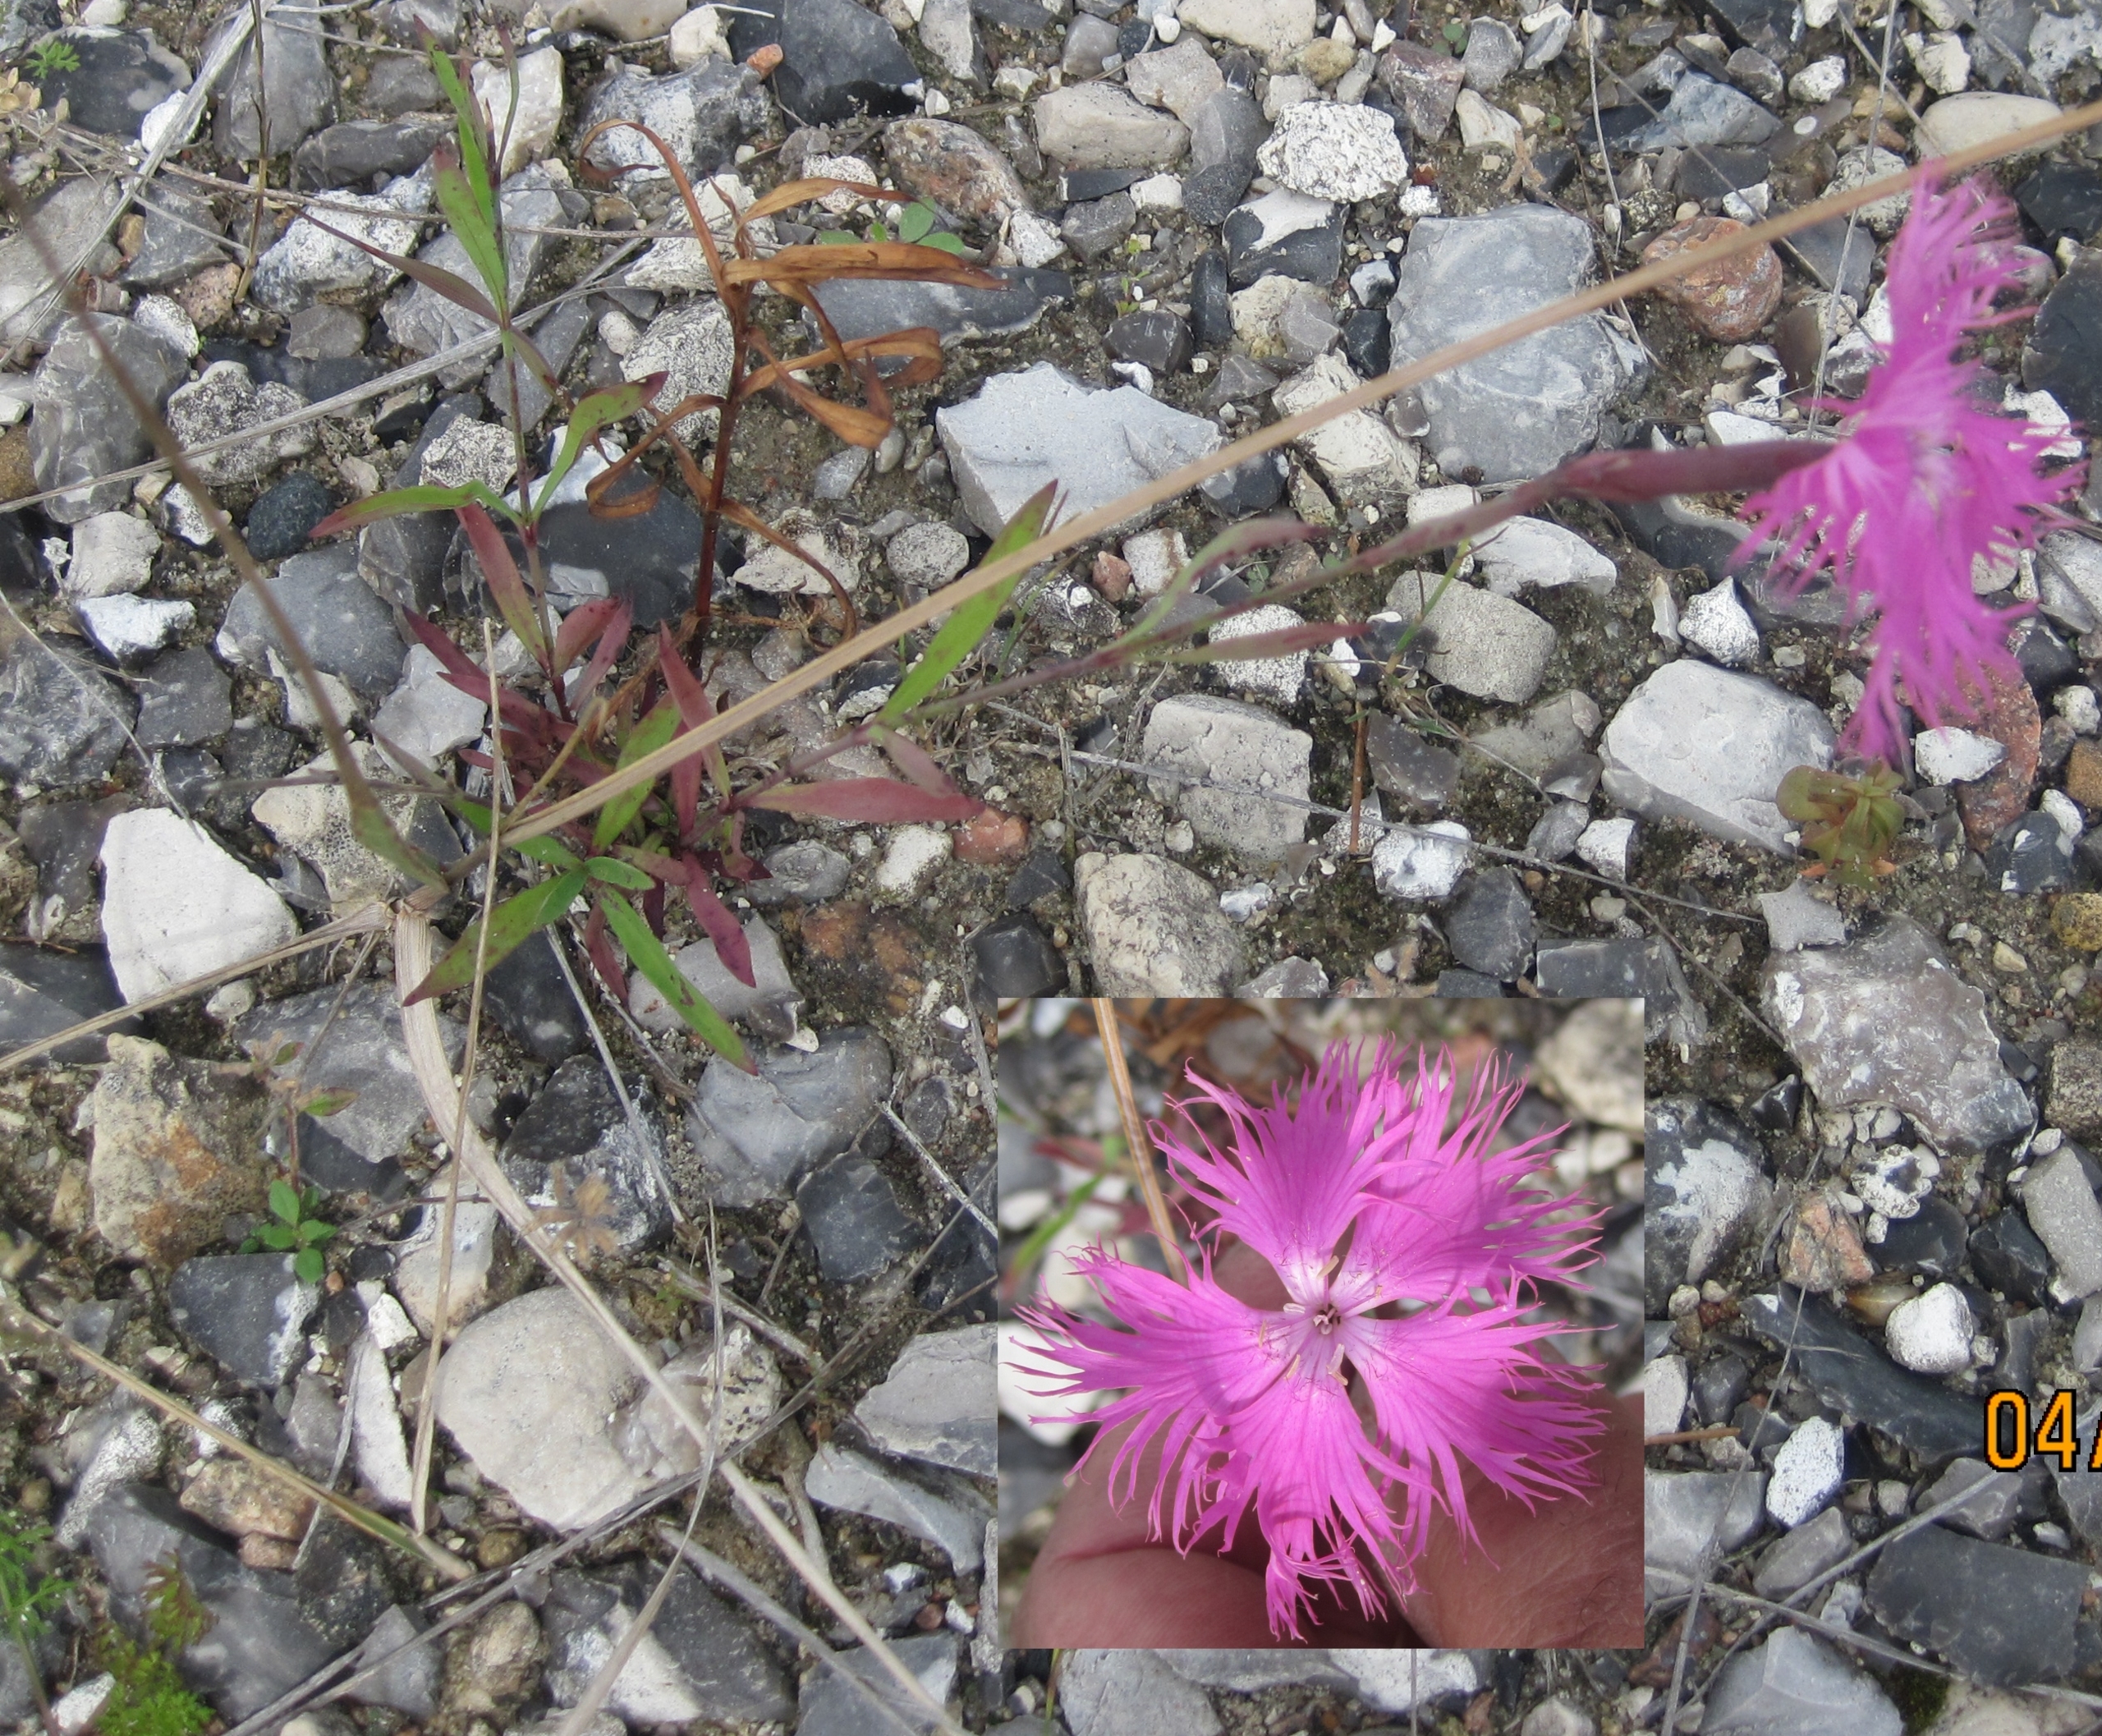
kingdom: Plantae
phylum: Tracheophyta
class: Magnoliopsida
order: Caryophyllales
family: Caryophyllaceae
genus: Dianthus
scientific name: Dianthus superbus
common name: Strand-nellike
